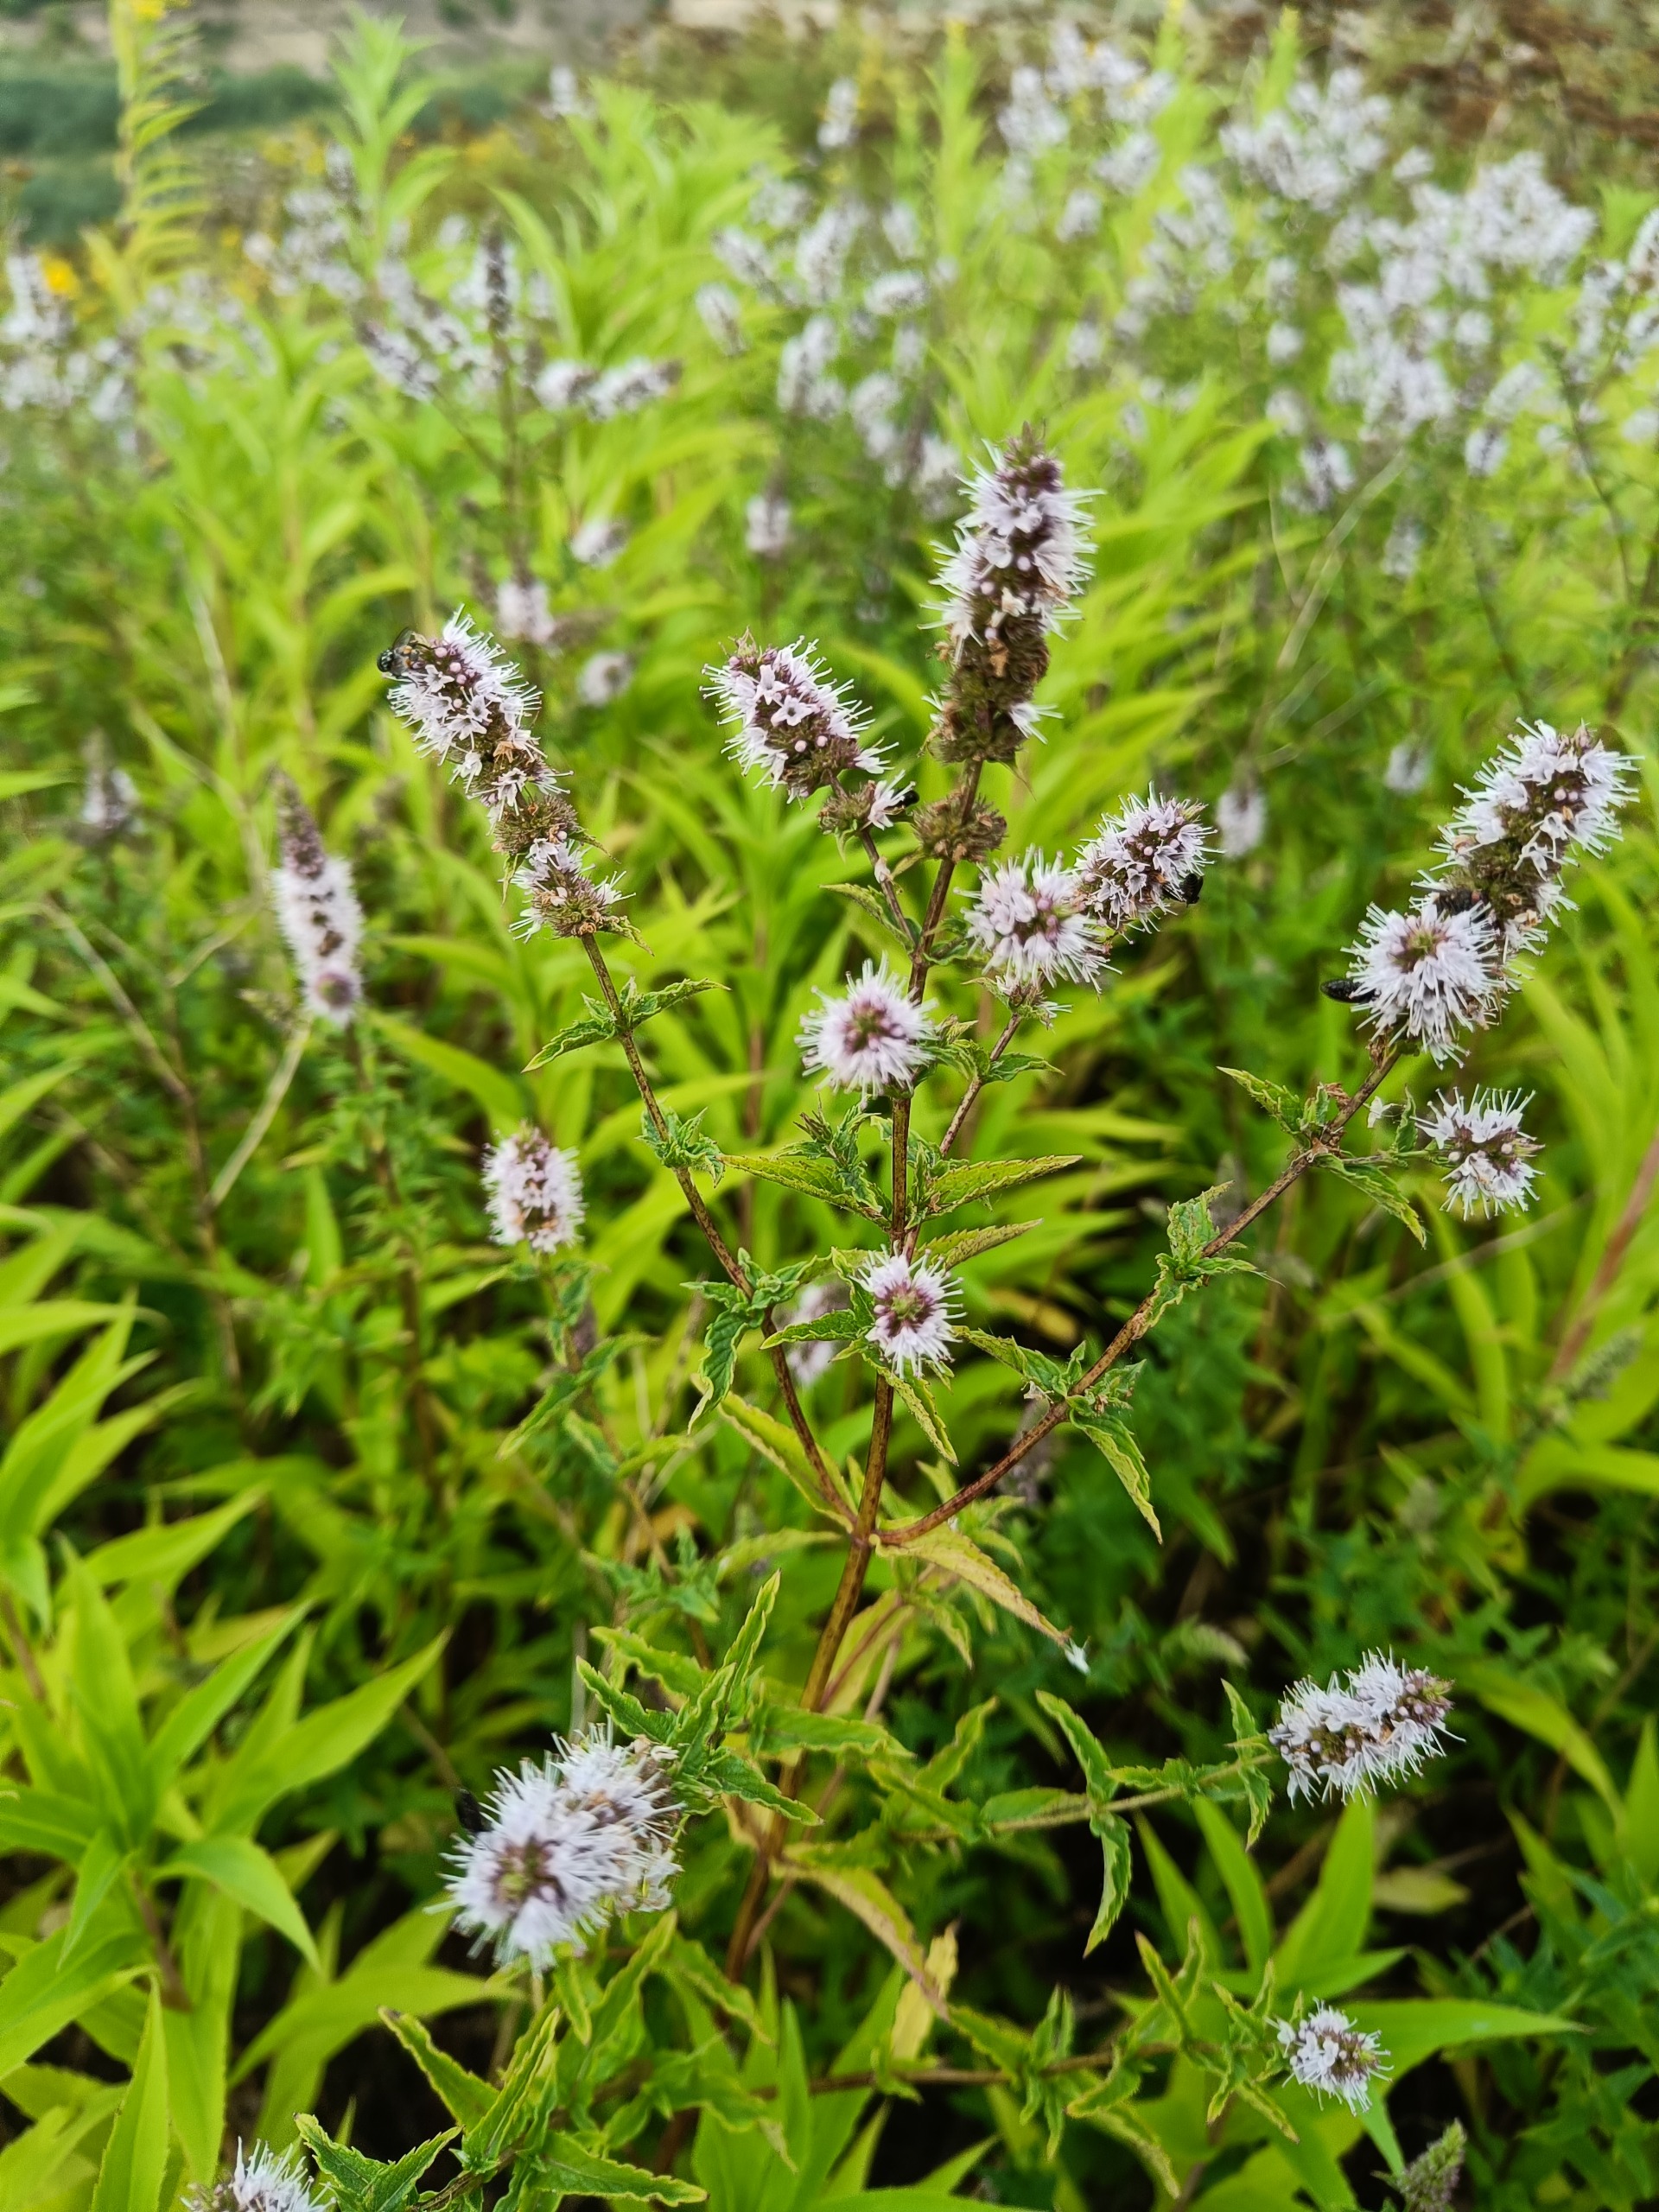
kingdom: Plantae
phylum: Tracheophyta
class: Magnoliopsida
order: Lamiales
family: Lamiaceae
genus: Mentha
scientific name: Mentha spicata
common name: Grøn mynte
